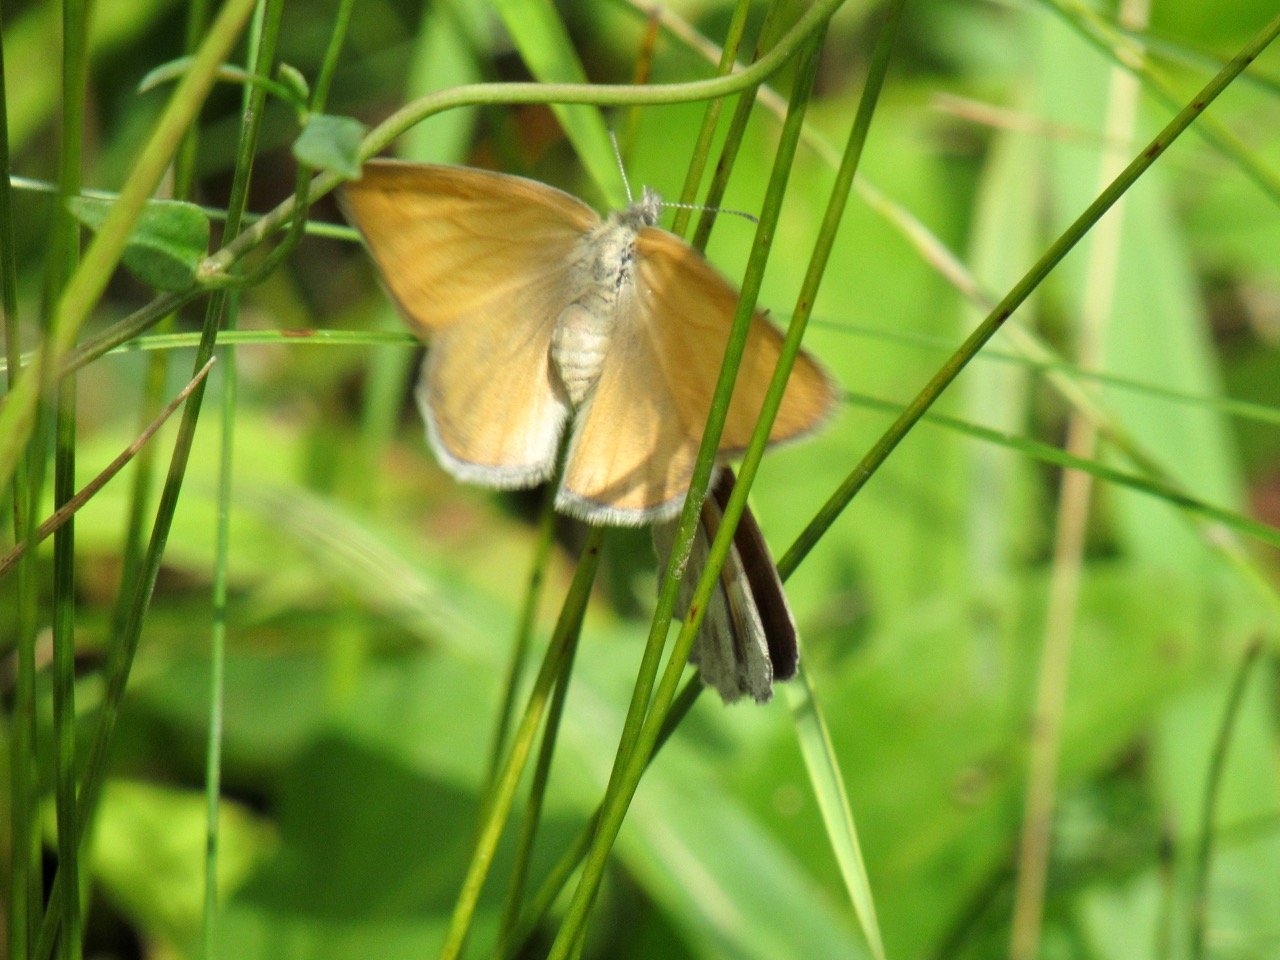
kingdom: Animalia
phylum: Arthropoda
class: Insecta
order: Lepidoptera
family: Nymphalidae
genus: Coenonympha
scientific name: Coenonympha tullia
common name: Large Heath
